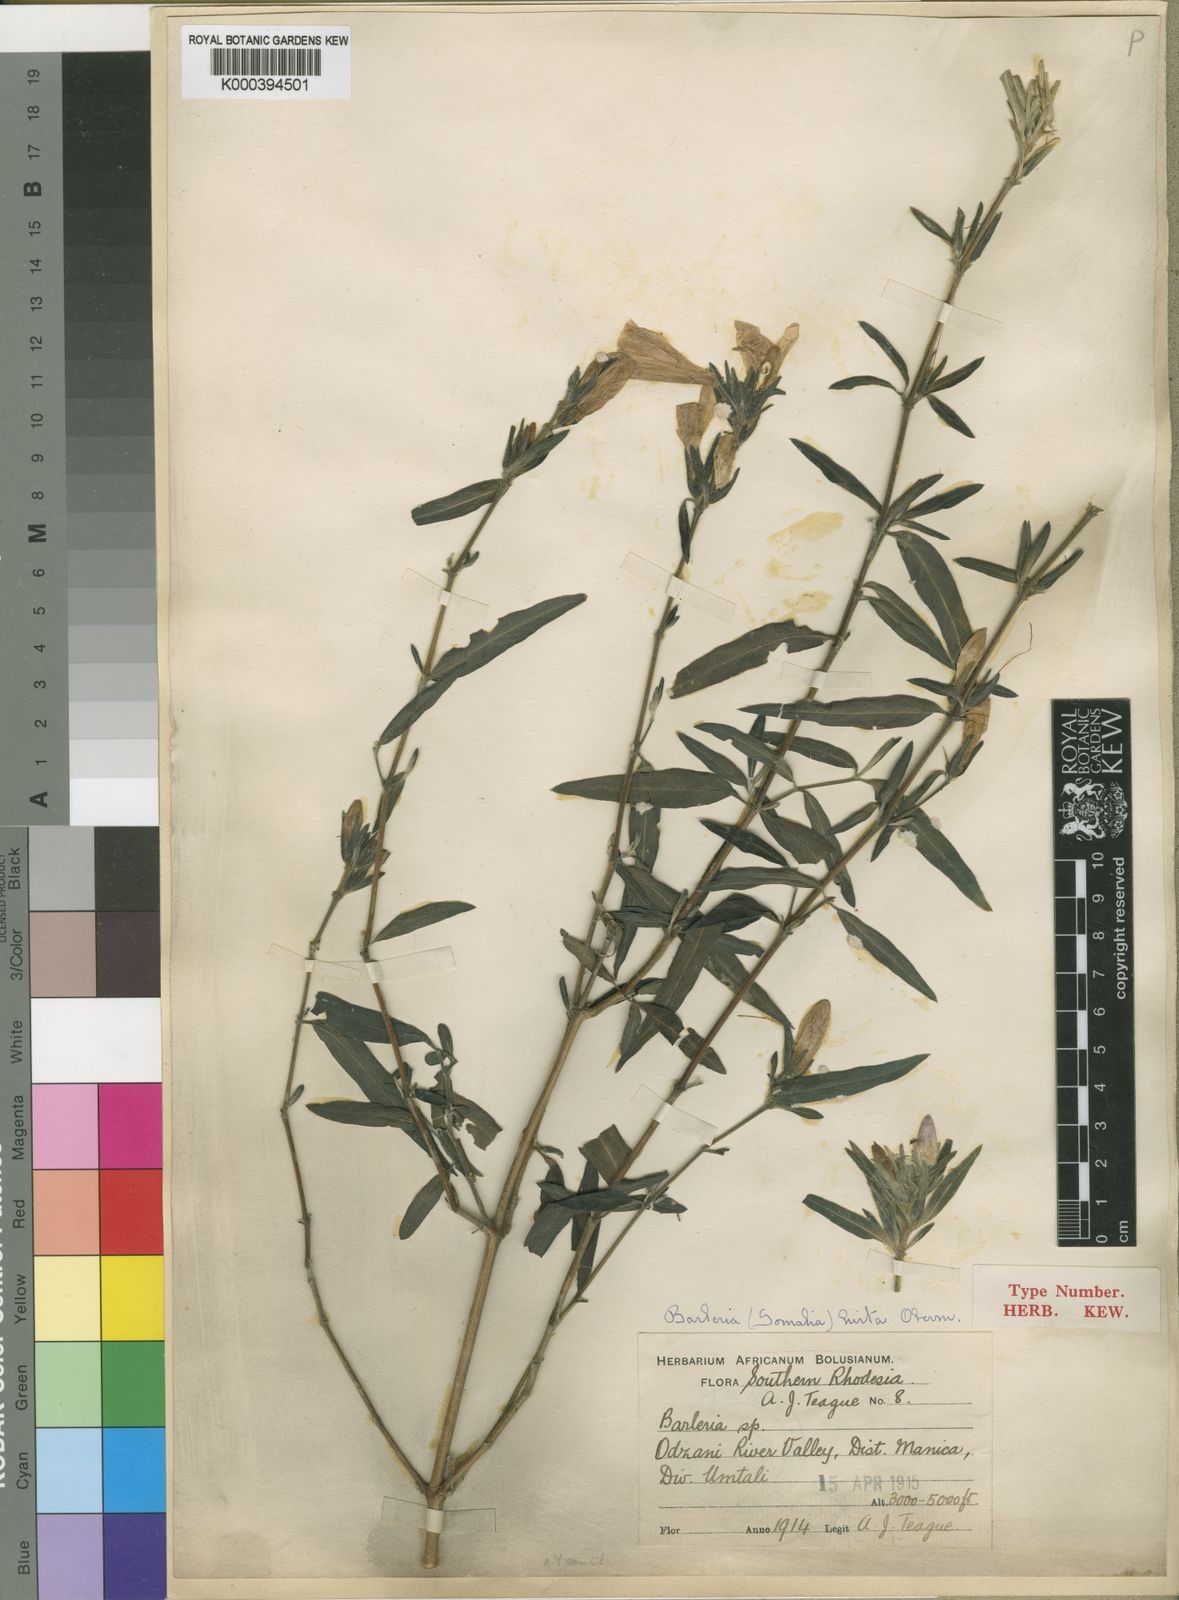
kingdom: Plantae
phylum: Tracheophyta
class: Magnoliopsida
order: Lamiales
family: Acanthaceae
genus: Barleria
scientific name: Barleria hirta
